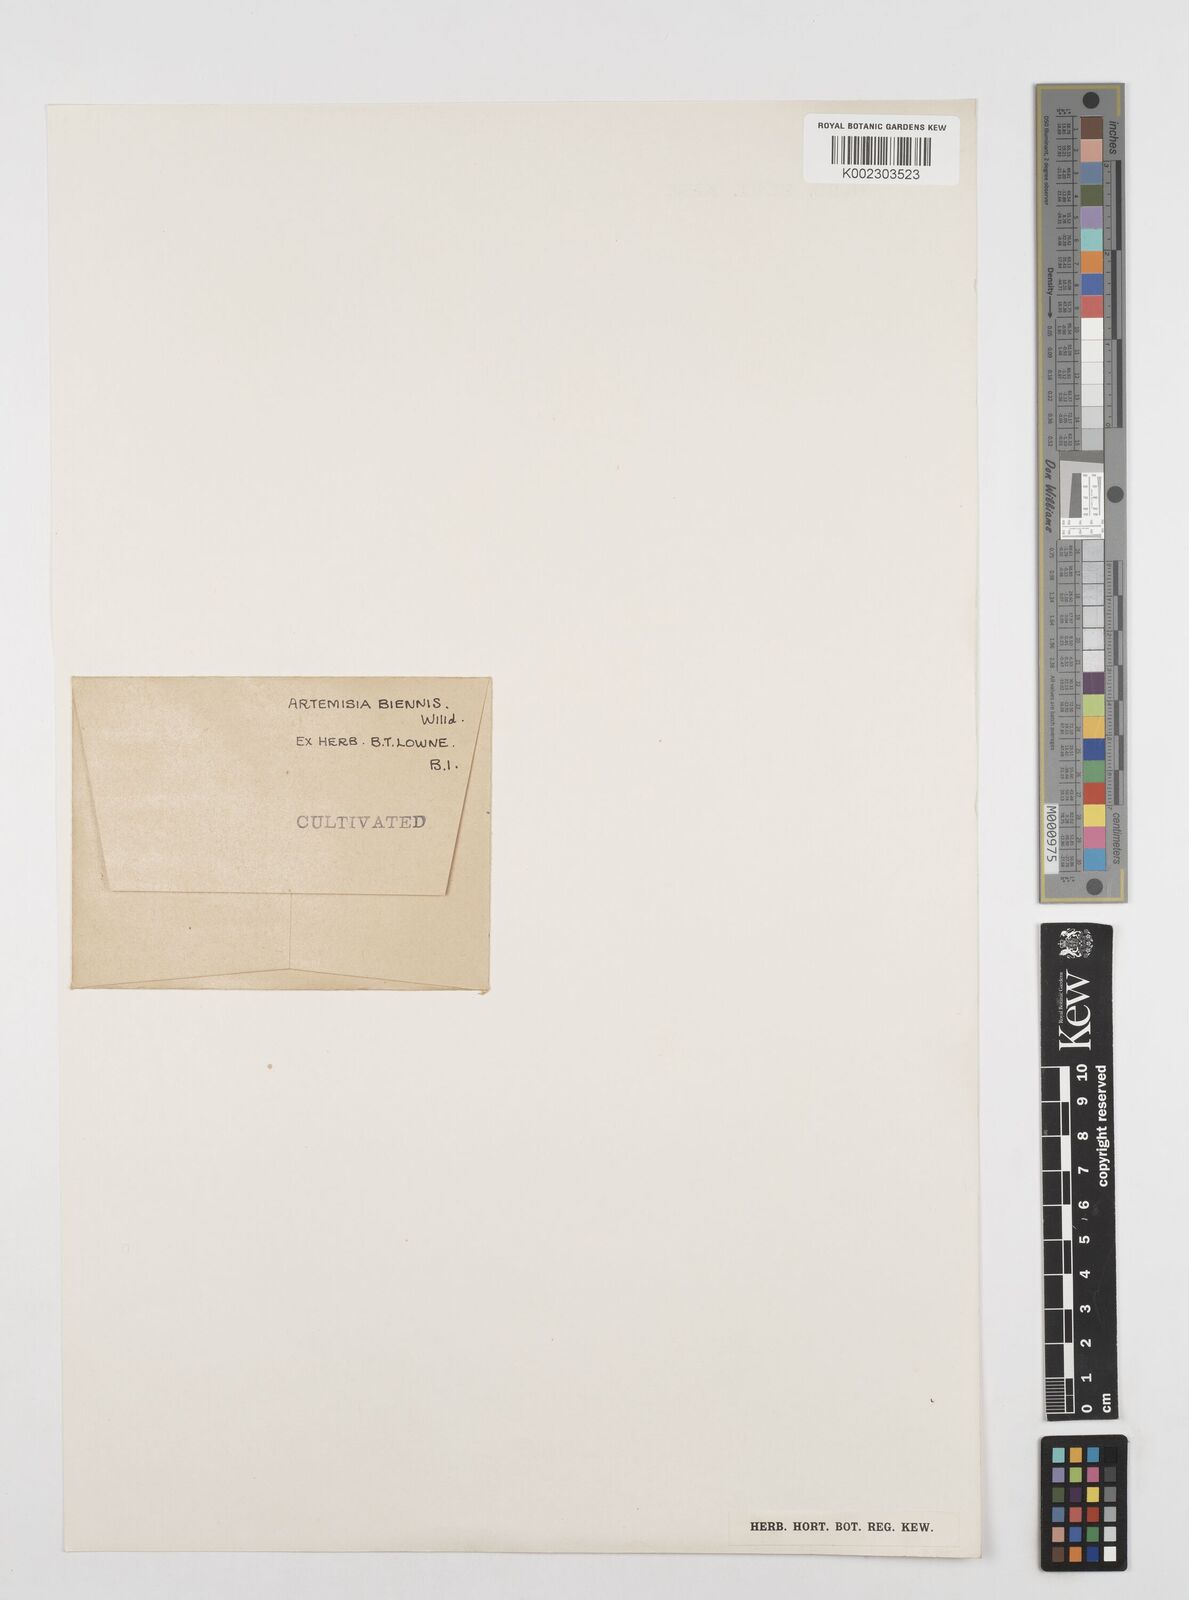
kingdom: Plantae
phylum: Tracheophyta
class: Magnoliopsida
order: Asterales
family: Asteraceae
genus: Artemisia
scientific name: Artemisia abrotanum
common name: Southernwood
